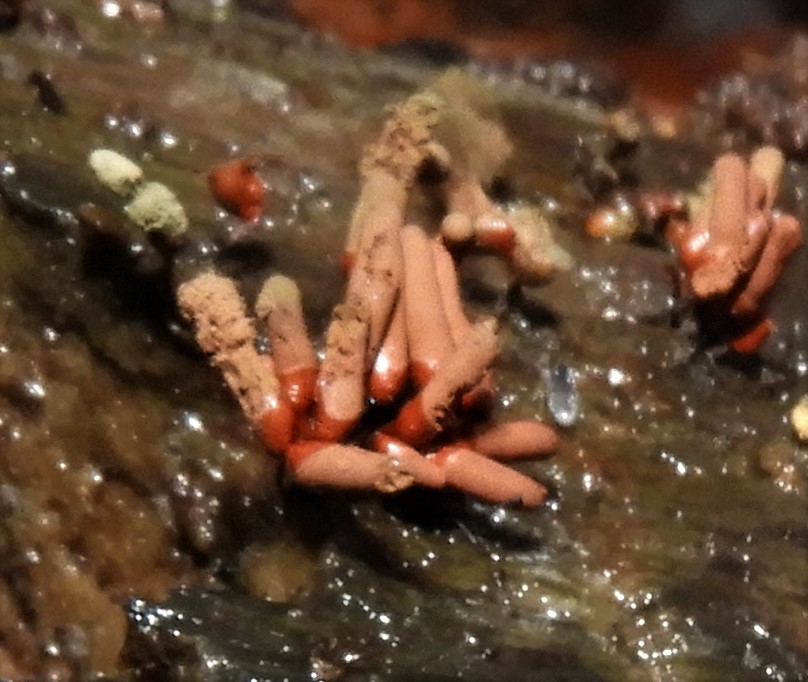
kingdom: Protozoa
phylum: Mycetozoa
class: Myxomycetes
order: Trichiales
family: Arcyriaceae
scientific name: Arcyriaceae
